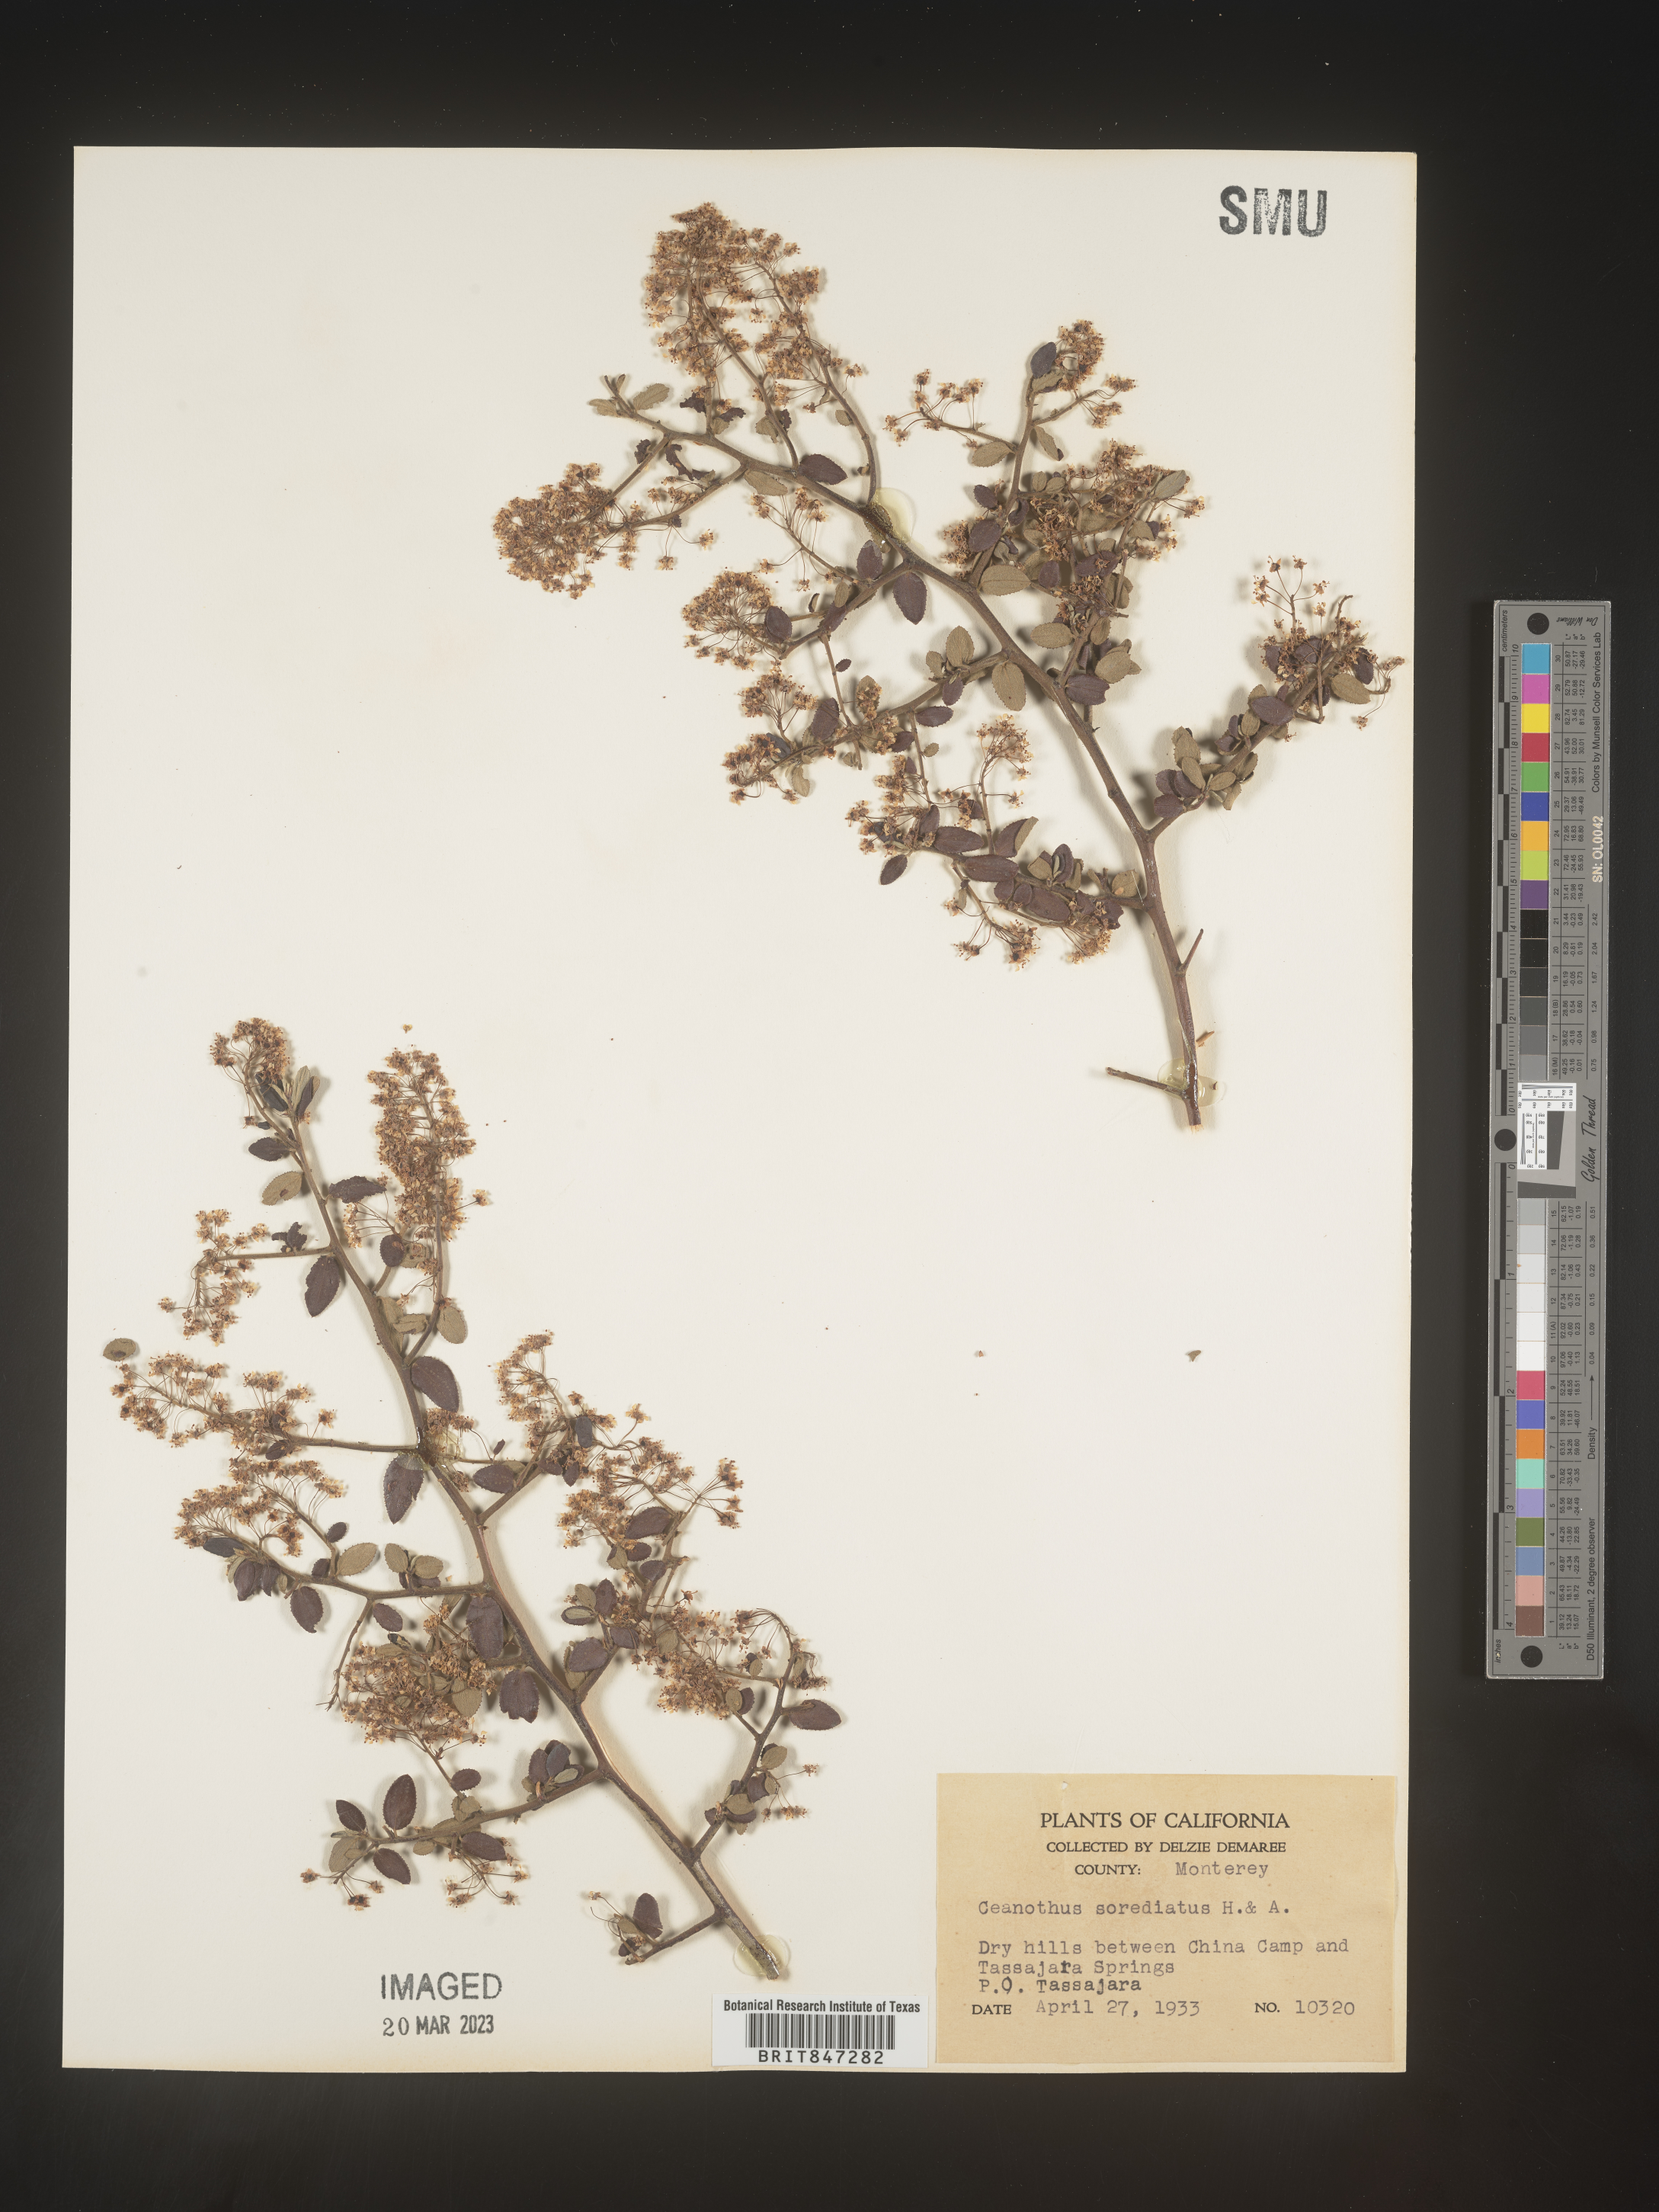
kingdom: Plantae
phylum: Tracheophyta
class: Magnoliopsida
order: Rosales
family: Rhamnaceae
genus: Ceanothus
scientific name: Ceanothus
